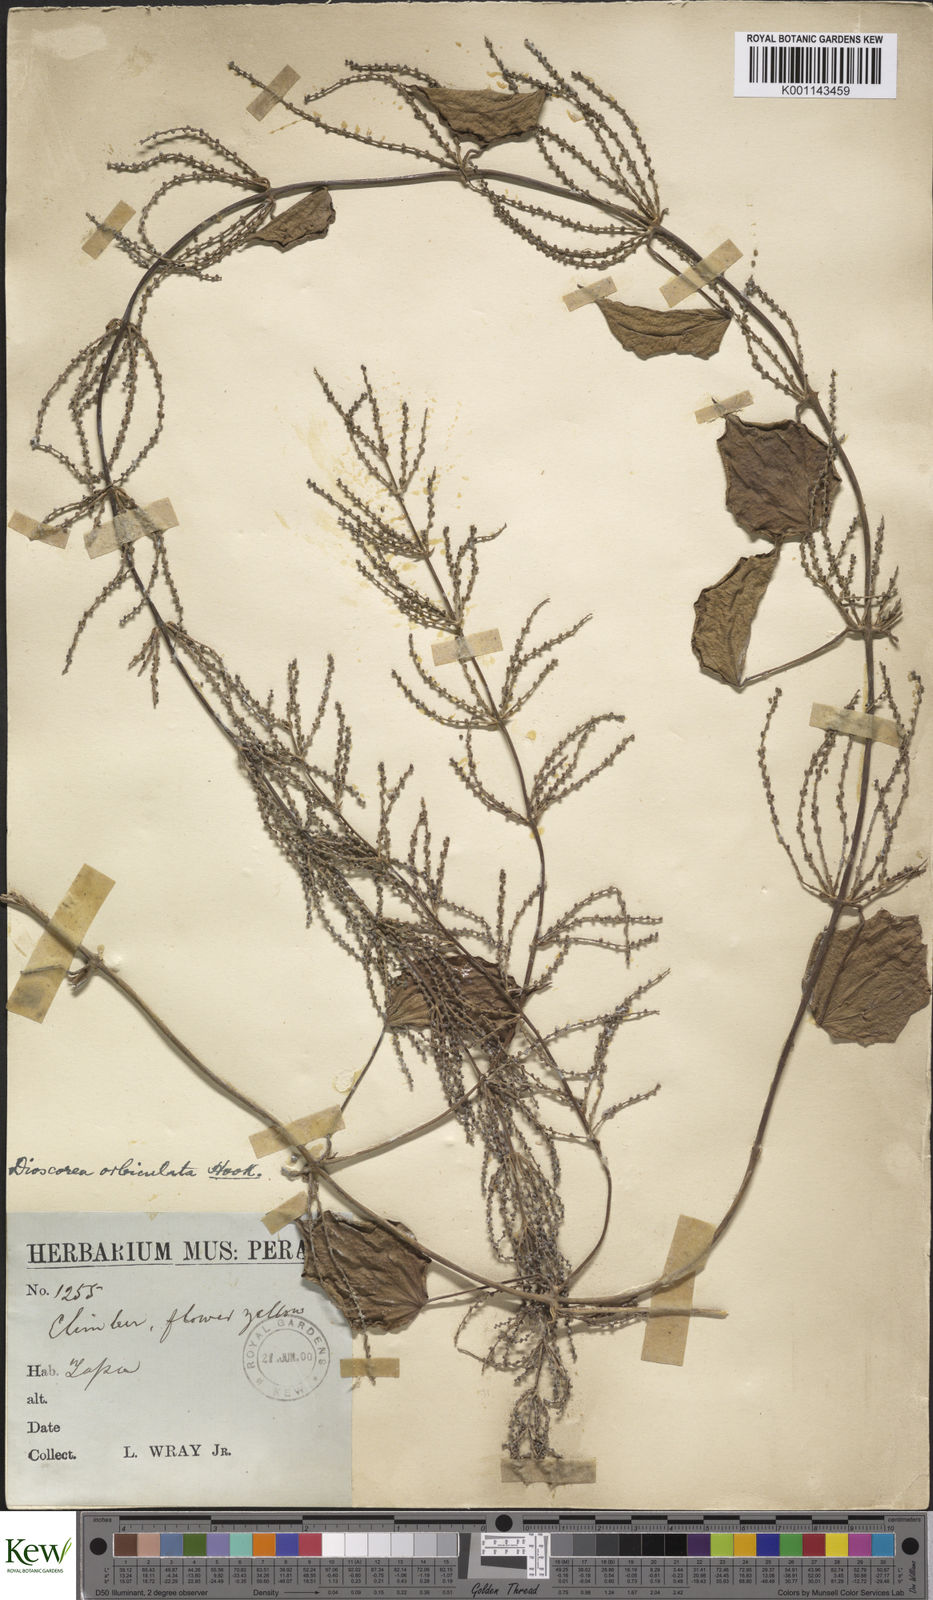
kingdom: Plantae
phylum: Tracheophyta
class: Liliopsida
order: Dioscoreales
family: Dioscoreaceae
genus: Dioscorea
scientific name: Dioscorea orbiculata
